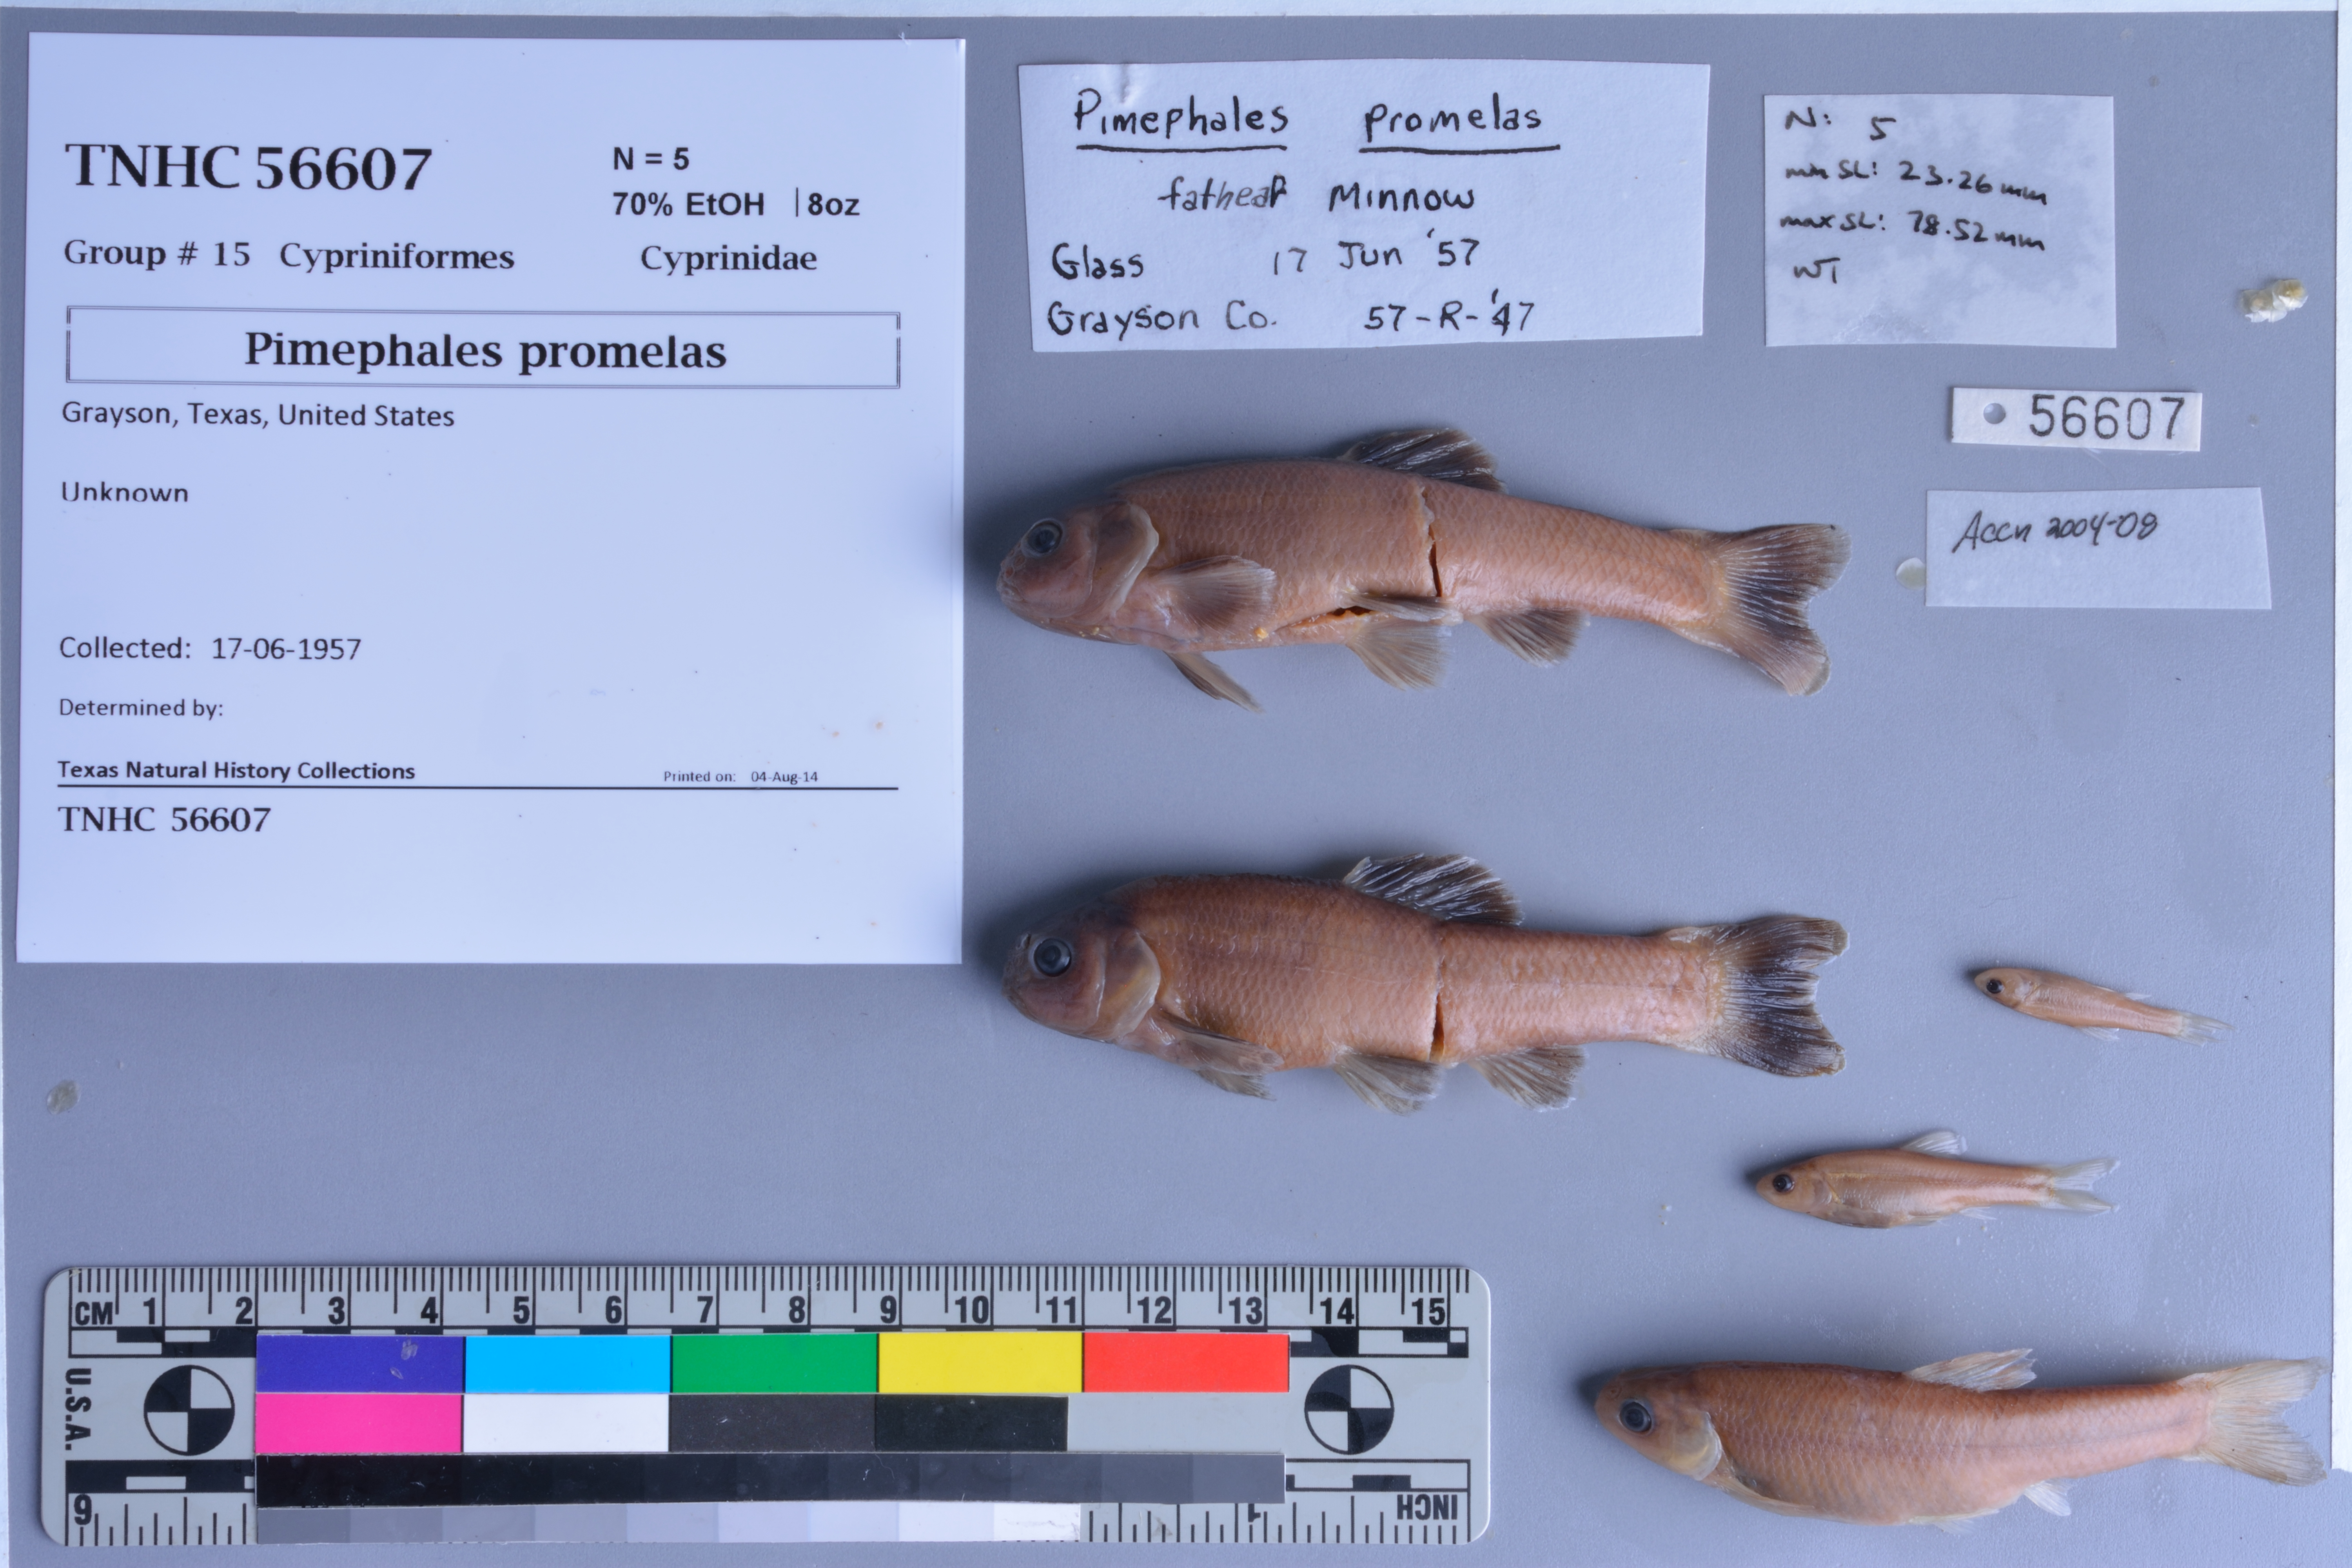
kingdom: Animalia
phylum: Chordata
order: Cypriniformes
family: Cyprinidae
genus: Pimephales
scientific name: Pimephales promelas
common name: Fathead minnow
